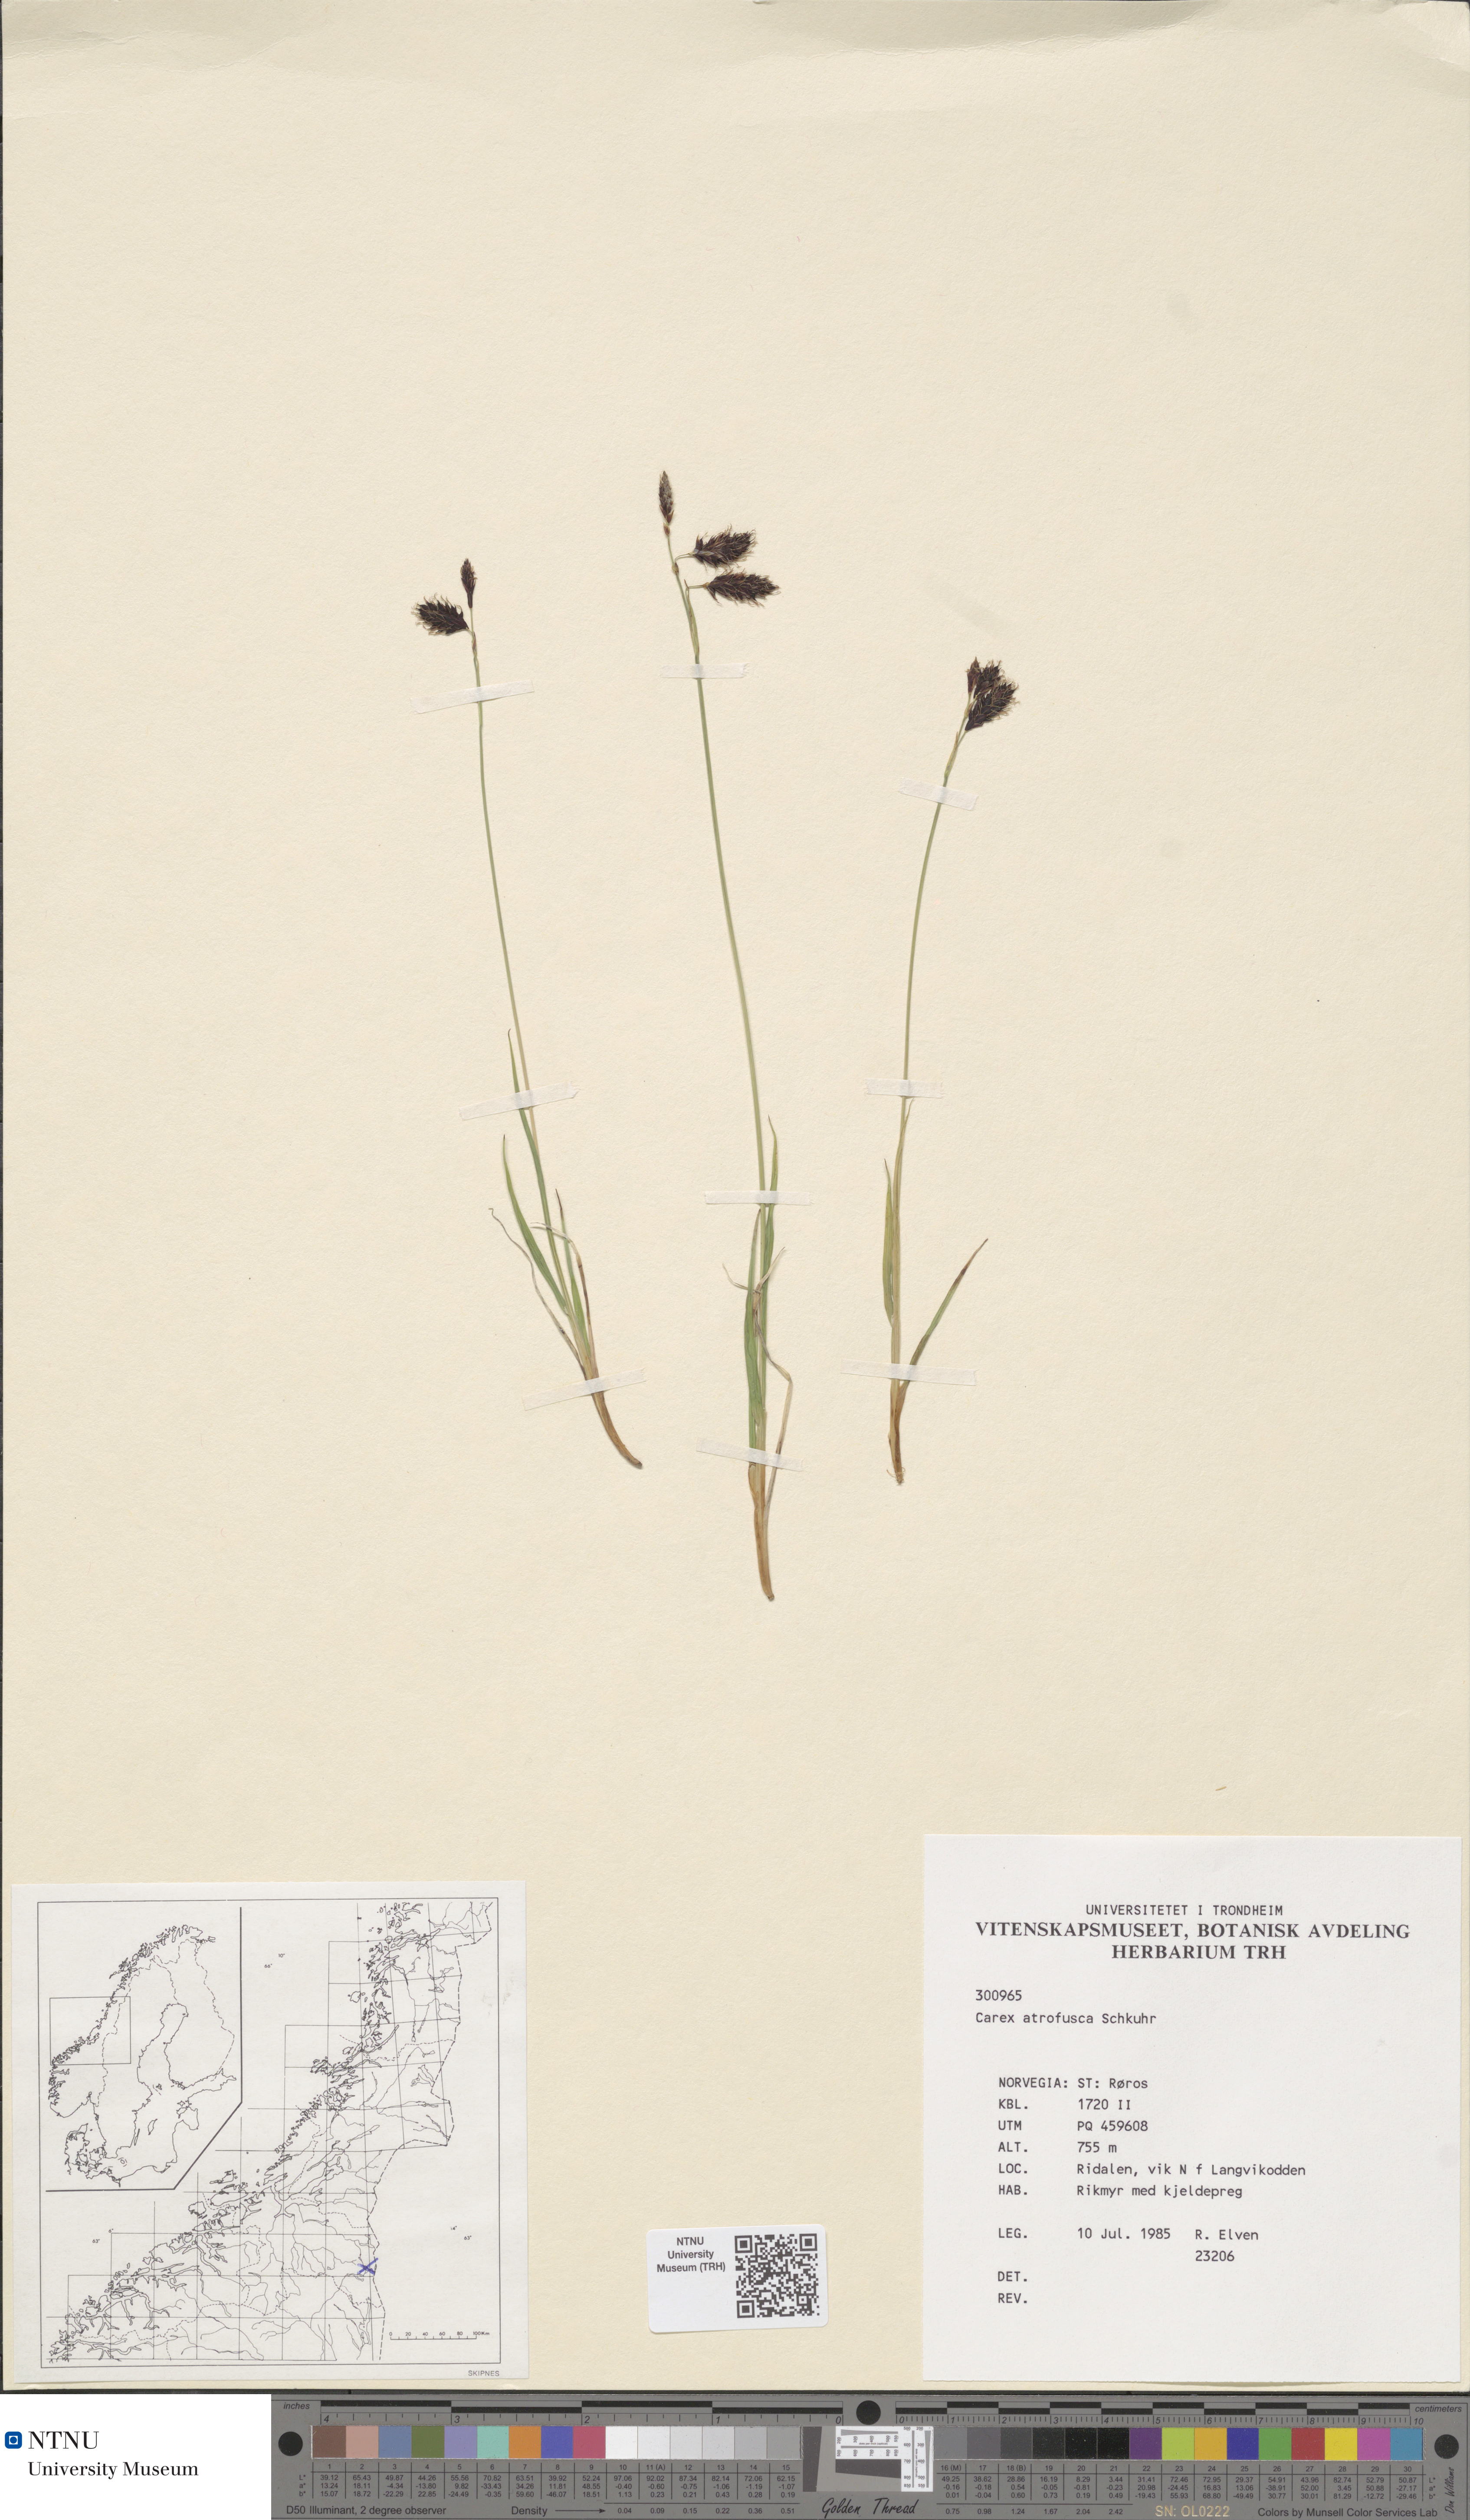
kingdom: Plantae
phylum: Tracheophyta
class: Liliopsida
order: Poales
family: Cyperaceae
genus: Carex
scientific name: Carex atrofusca
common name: Scorched alpine-sedge
